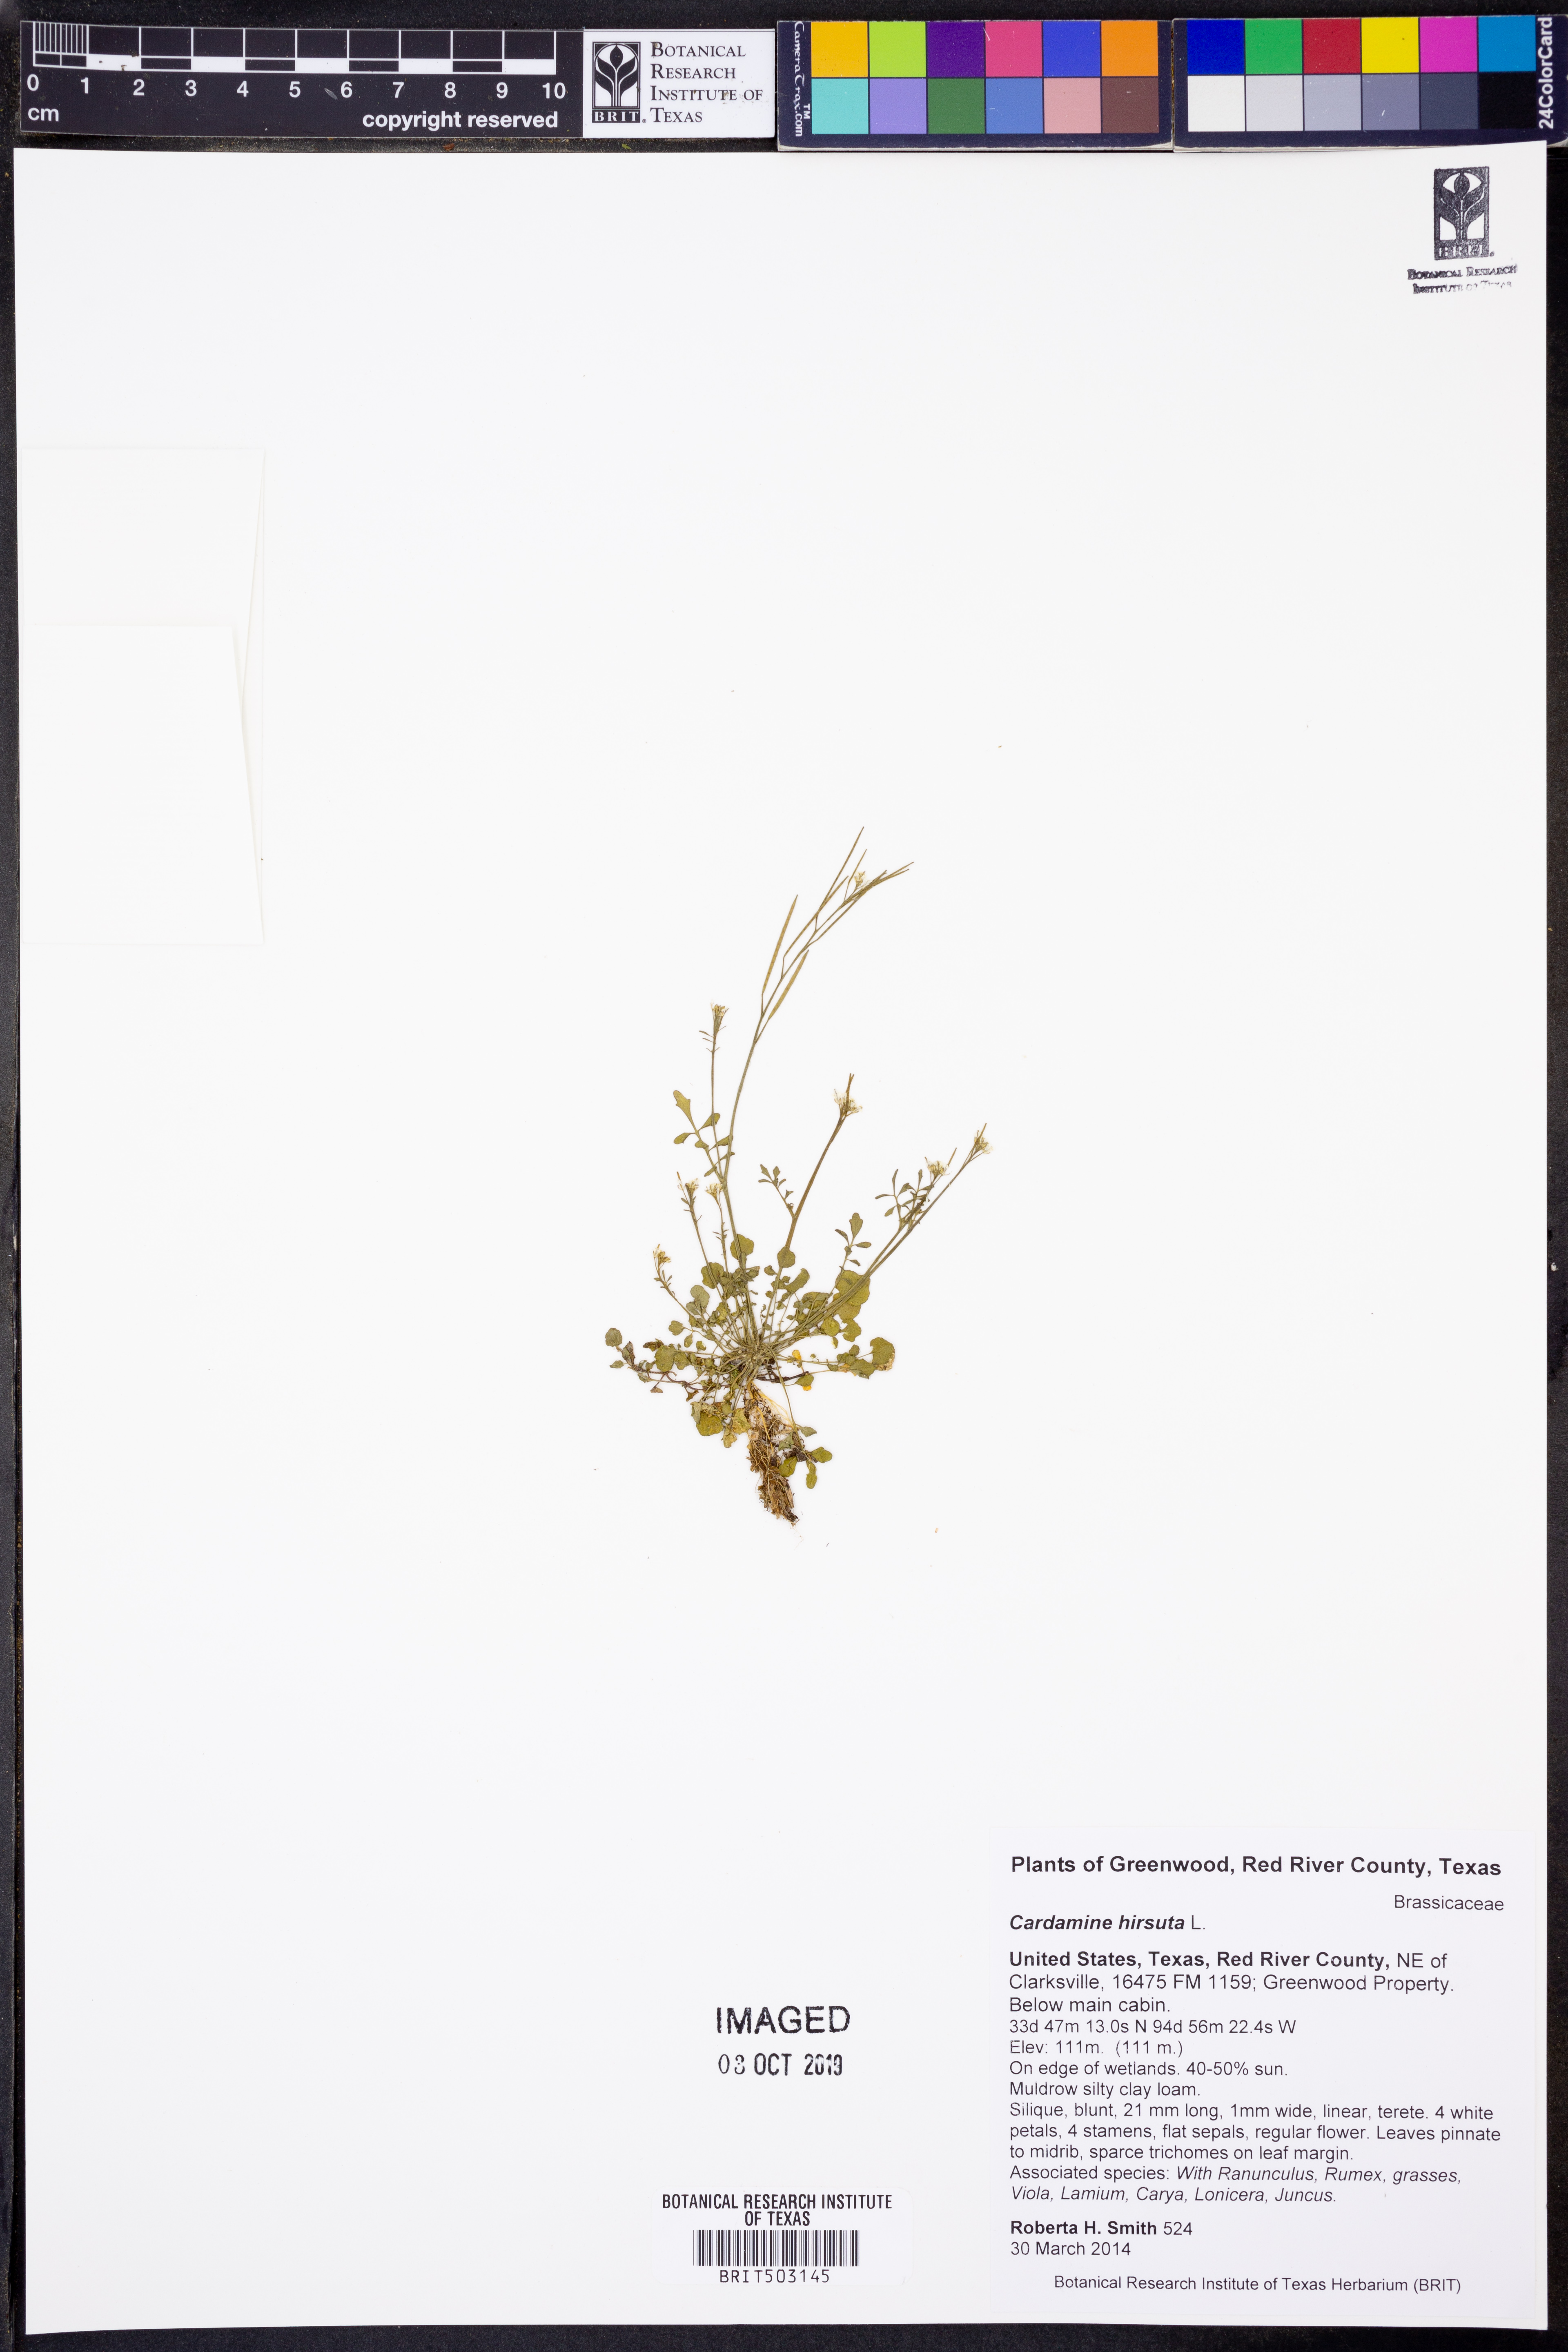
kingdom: Plantae
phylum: Tracheophyta
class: Magnoliopsida
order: Brassicales
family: Brassicaceae
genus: Cardamine
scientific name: Cardamine hirsuta
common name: Hairy bittercress
